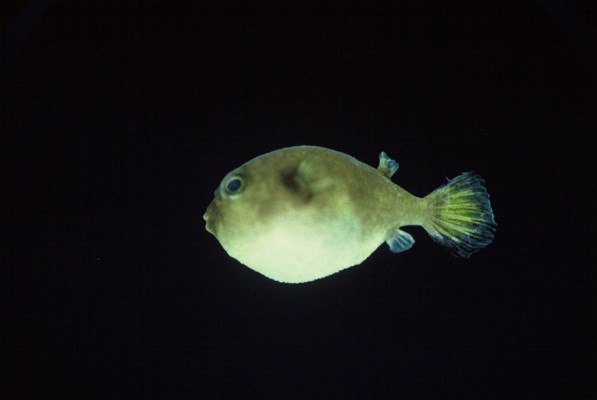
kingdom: Animalia
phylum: Chordata
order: Tetraodontiformes
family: Tetraodontidae
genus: Arothron
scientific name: Arothron immaculatus
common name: Blackedged blaasop
